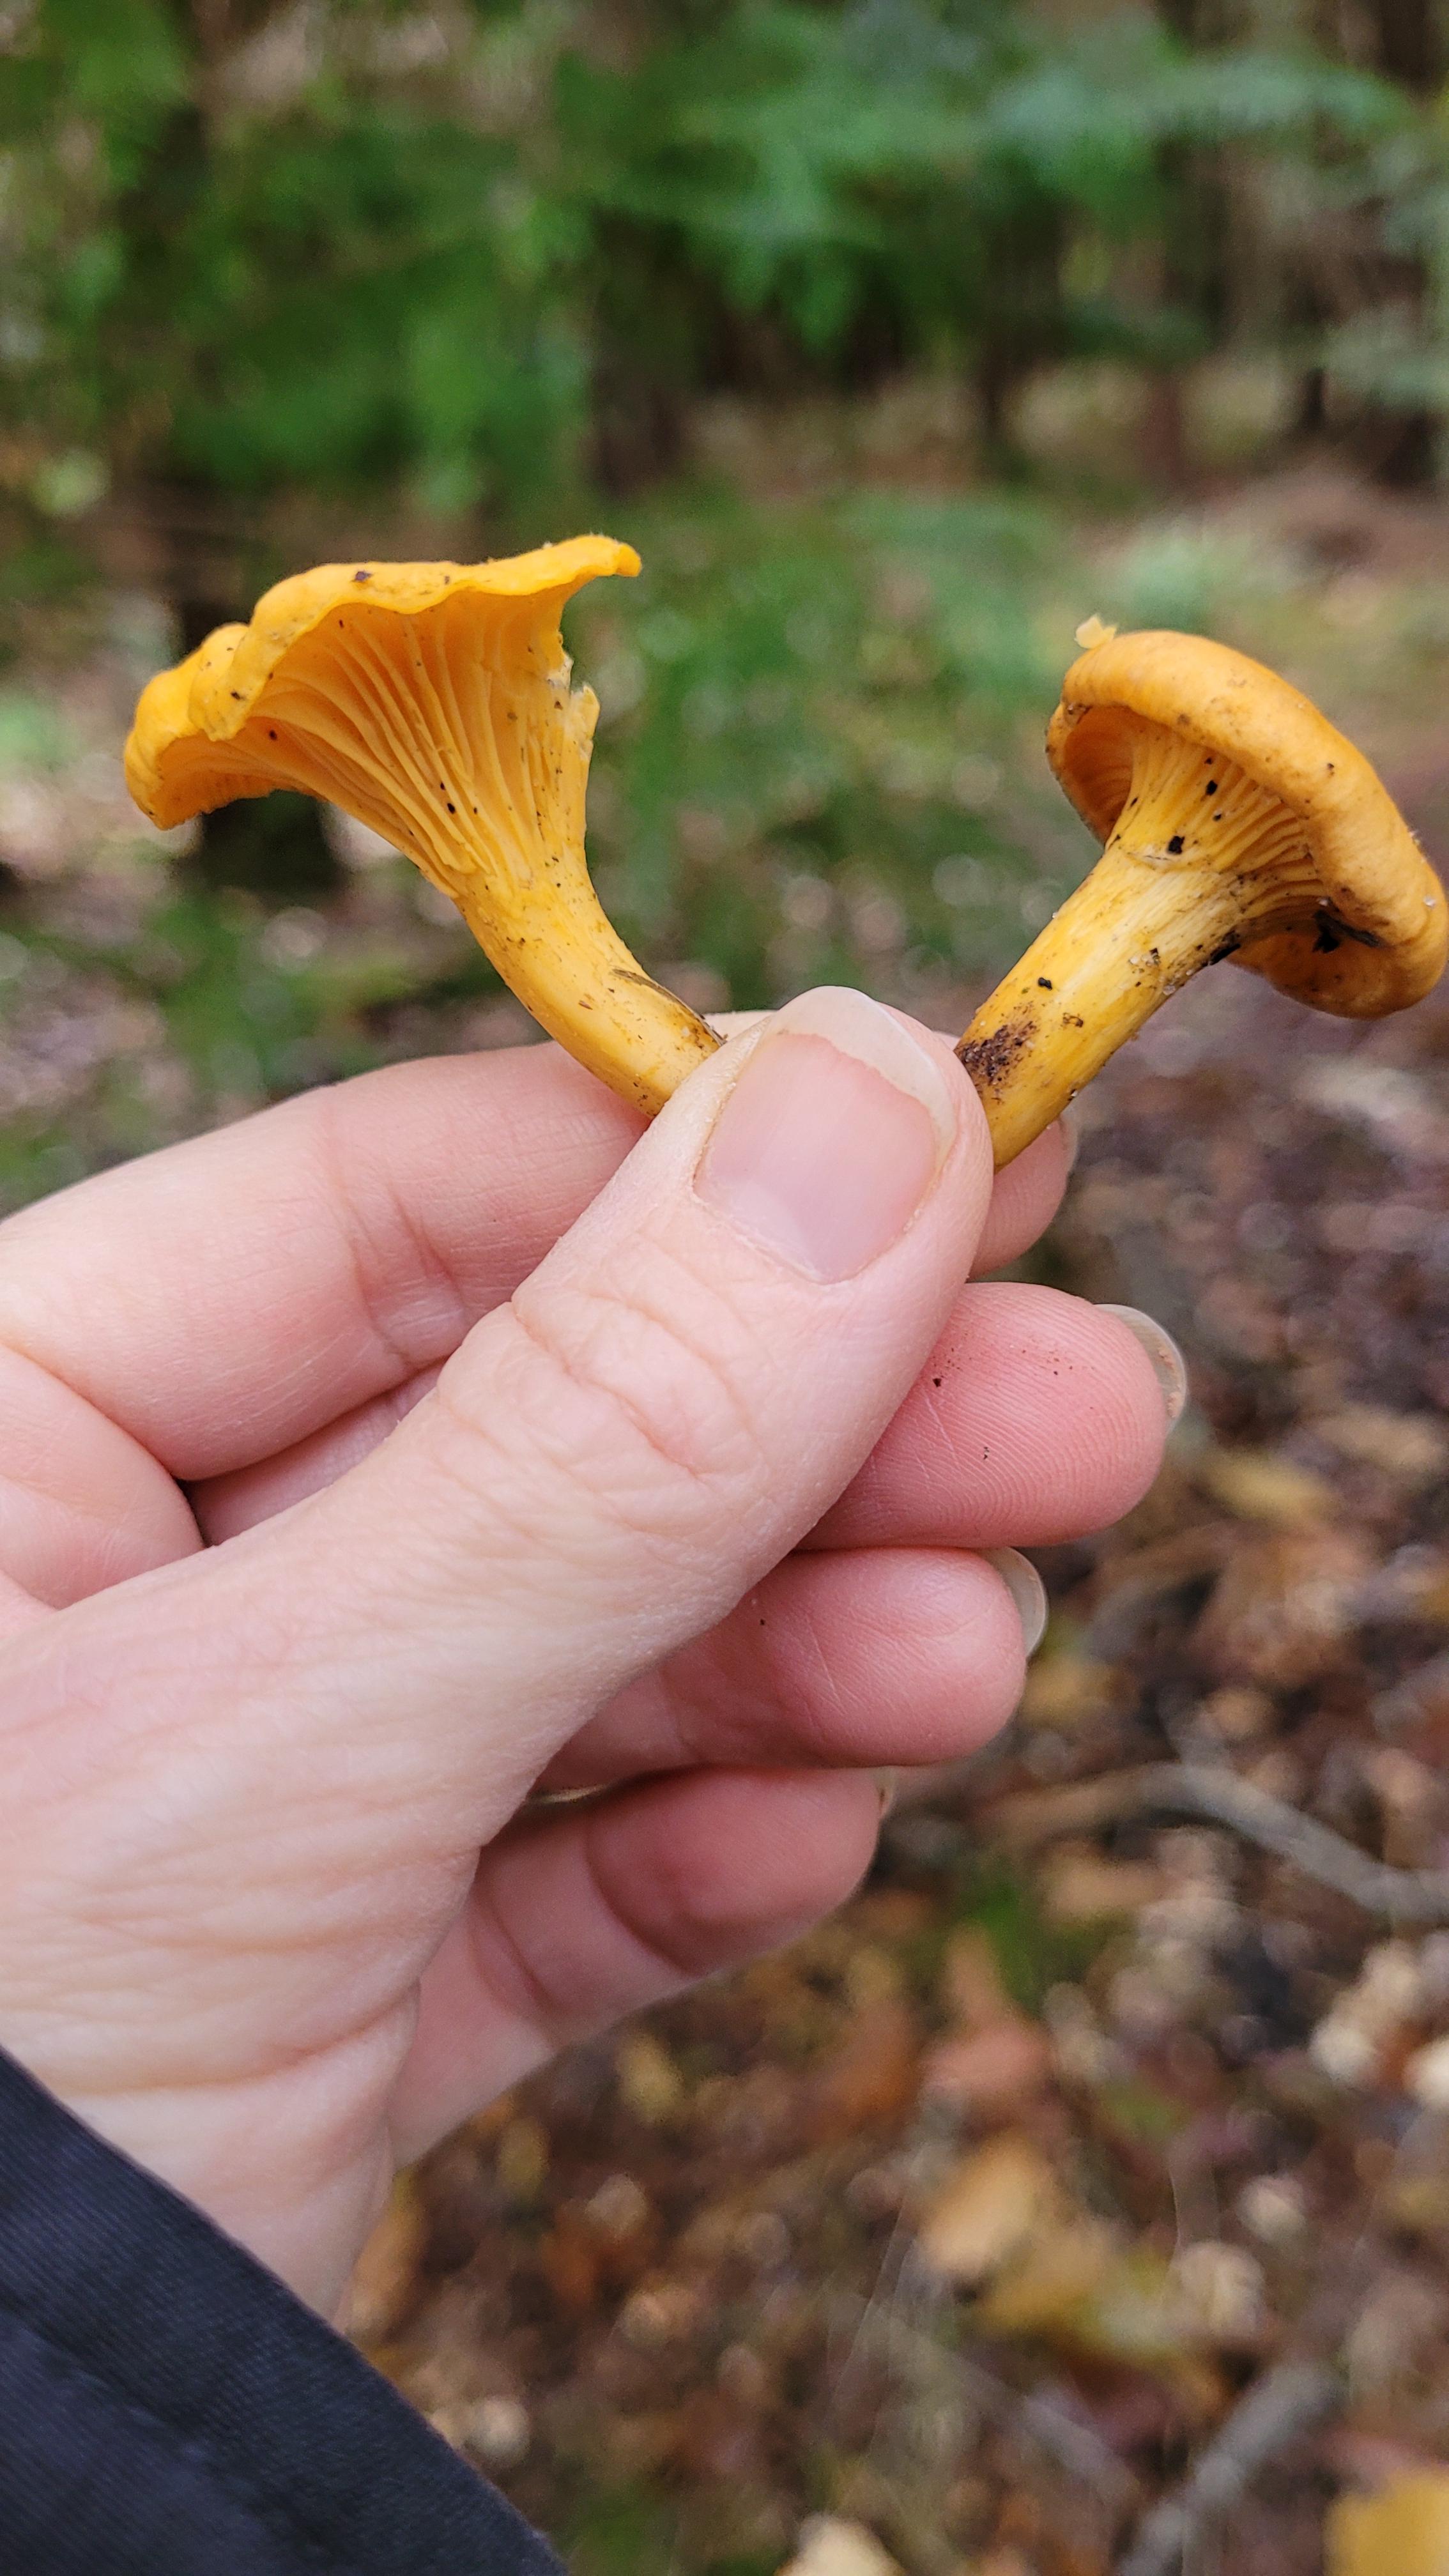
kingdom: Fungi
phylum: Basidiomycota
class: Agaricomycetes
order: Cantharellales
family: Hydnaceae
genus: Cantharellus
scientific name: Cantharellus cibarius
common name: almindelig kantarel
